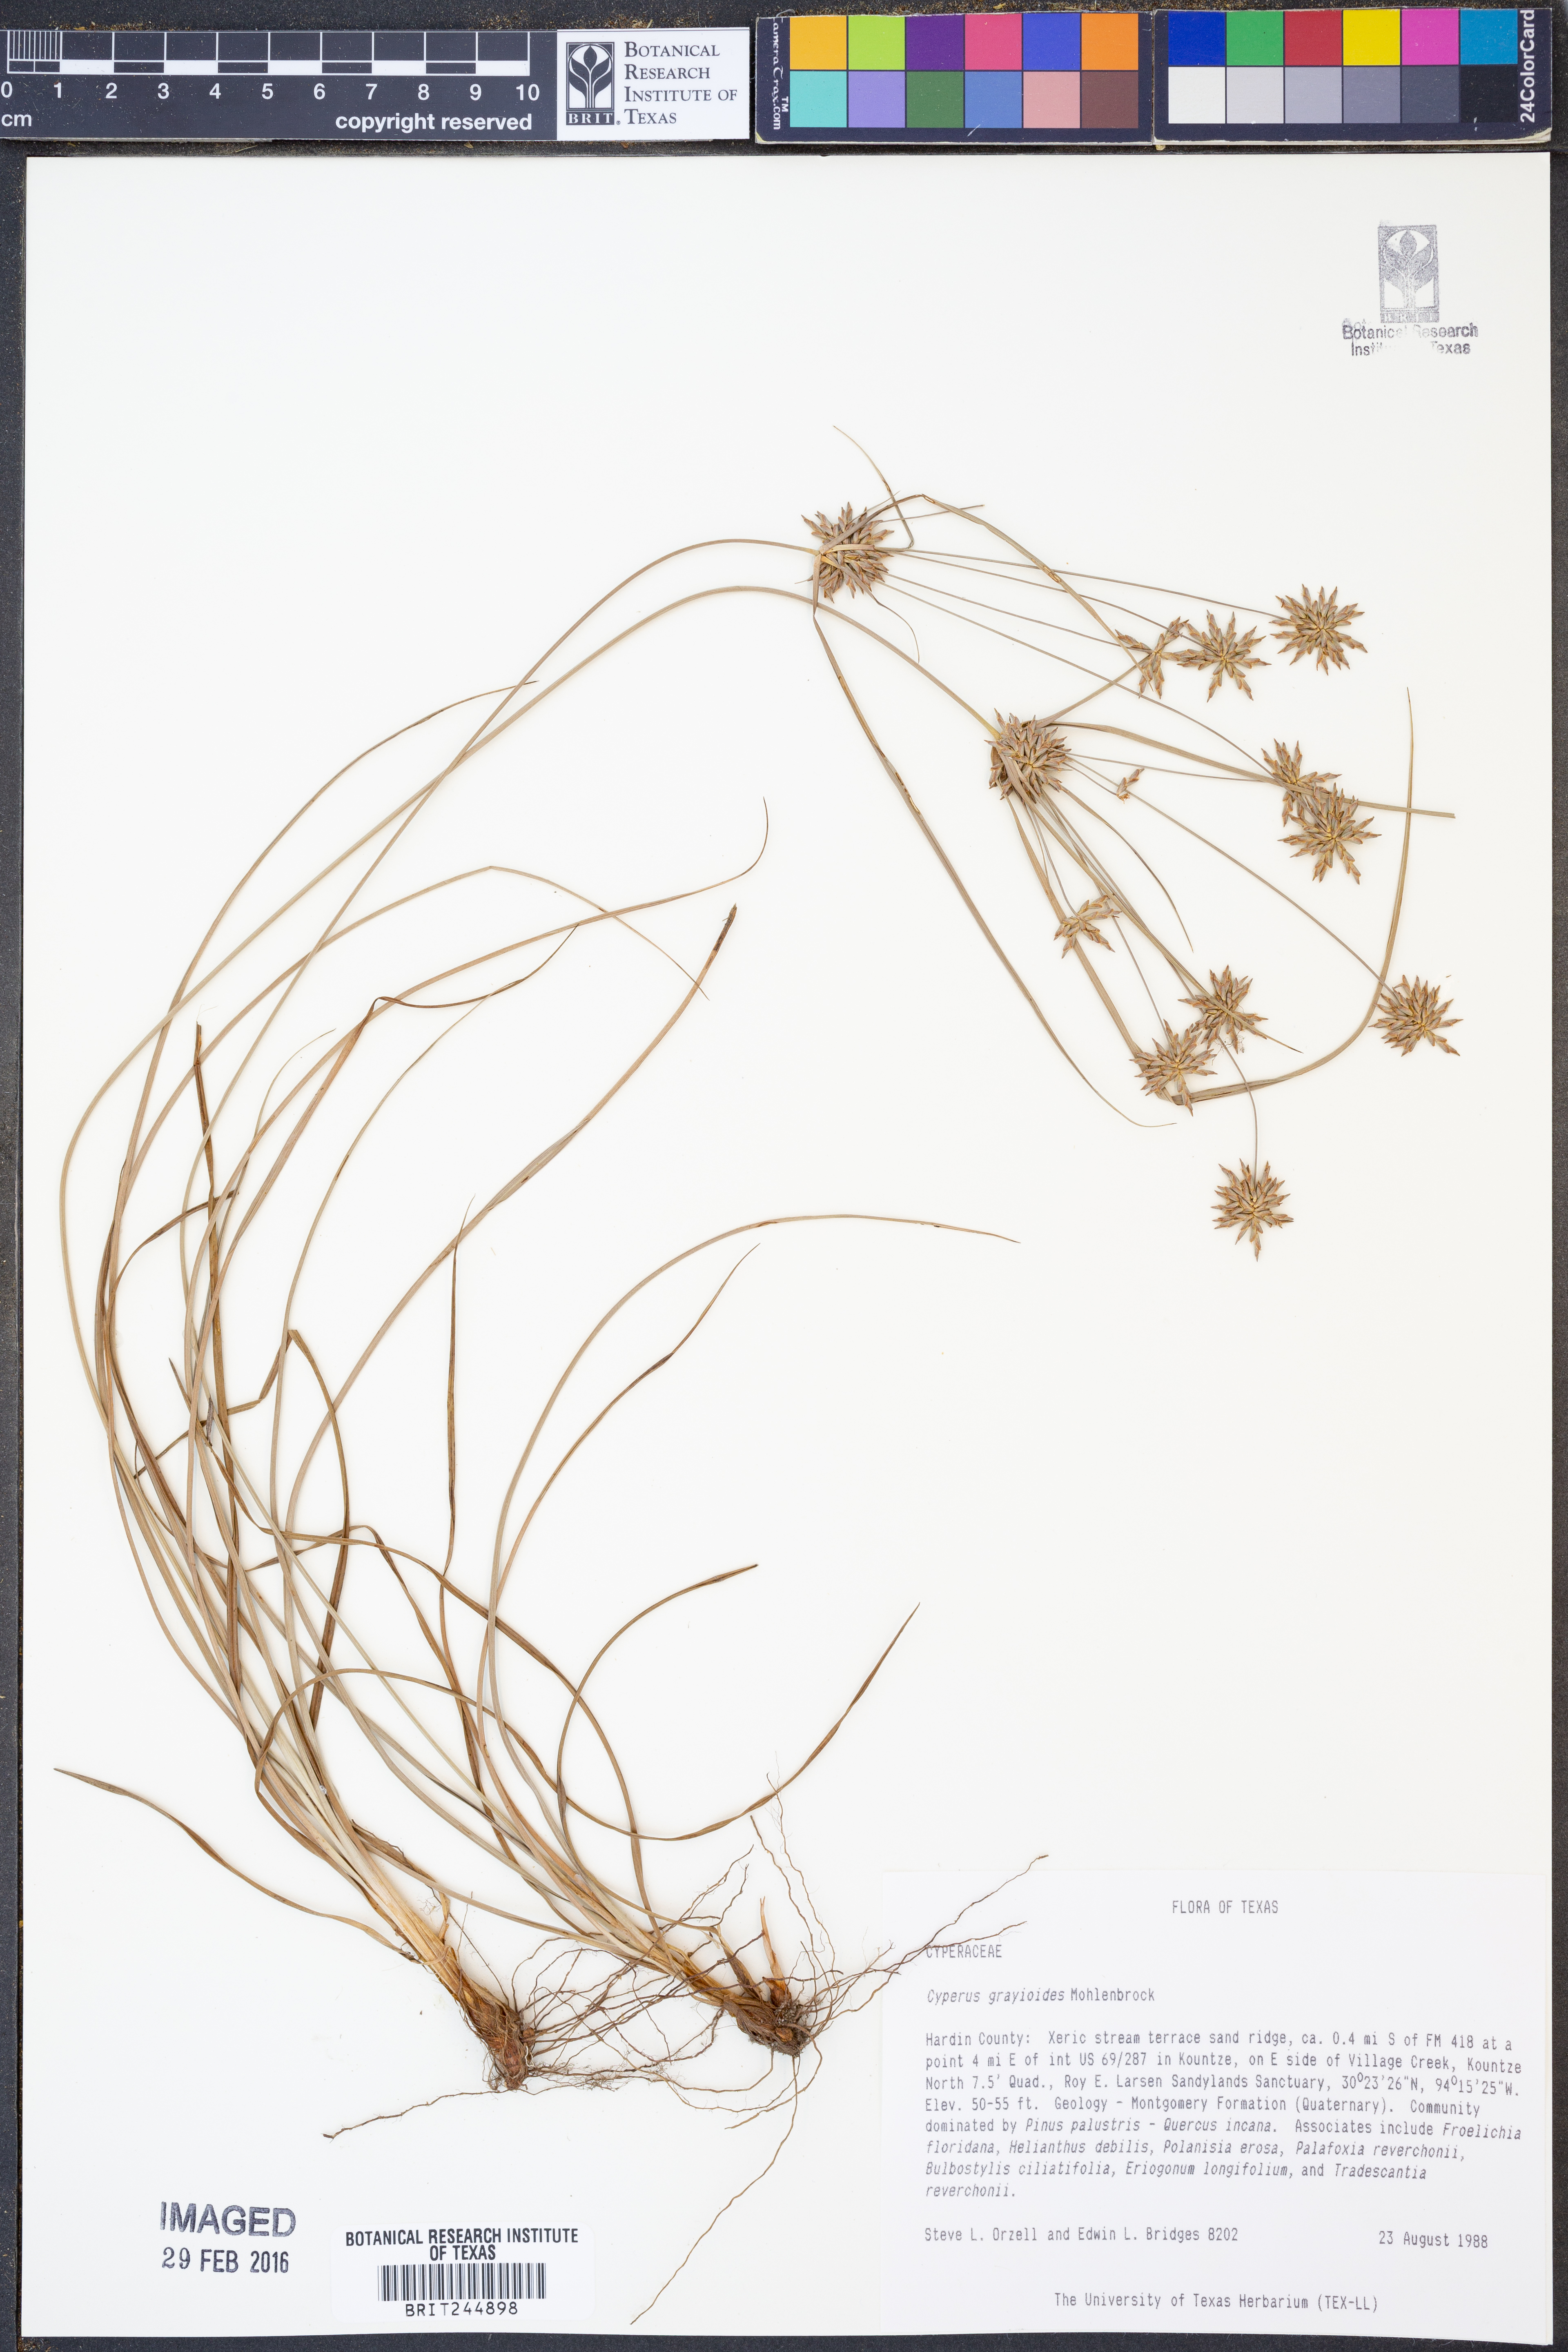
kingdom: Plantae
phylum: Tracheophyta
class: Liliopsida
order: Poales
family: Cyperaceae
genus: Cyperus
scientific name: Cyperus grayioides
